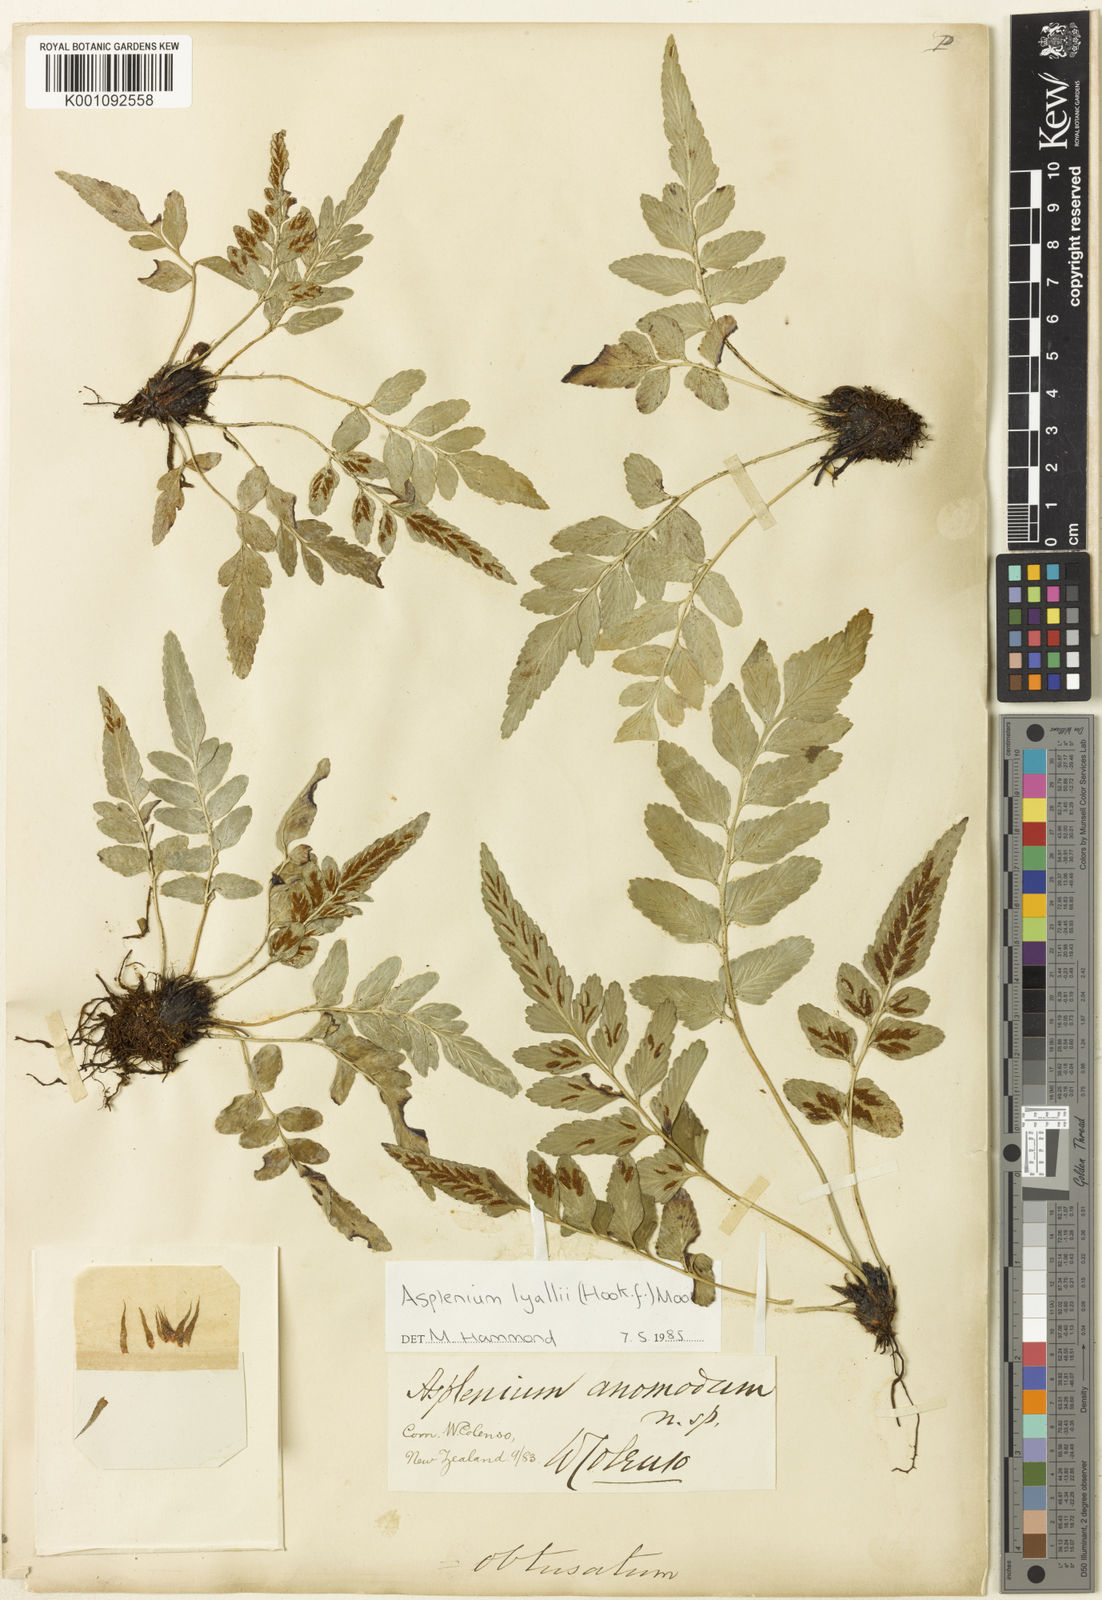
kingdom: Plantae
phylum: Tracheophyta
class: Polypodiopsida
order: Polypodiales
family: Aspleniaceae
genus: Asplenium
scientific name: Asplenium lyallii
